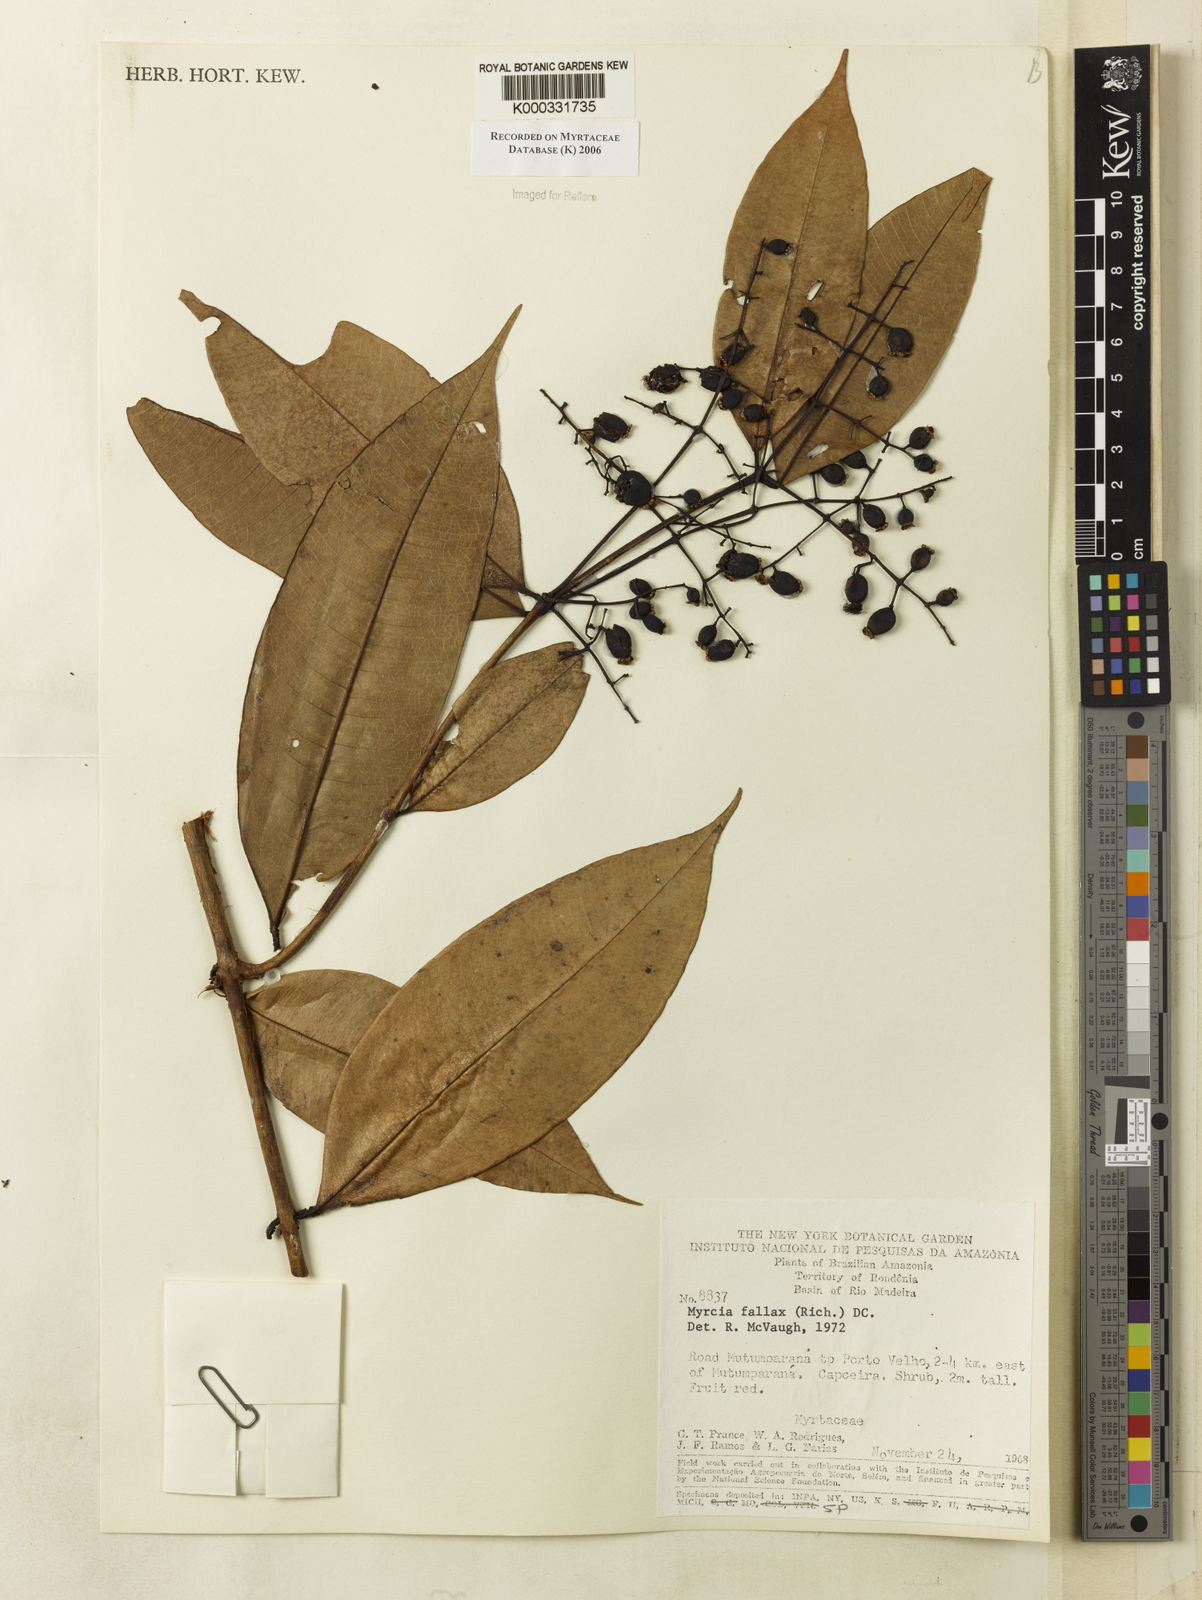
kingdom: Plantae
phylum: Tracheophyta
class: Magnoliopsida
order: Myrtales
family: Myrtaceae
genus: Myrcia
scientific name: Myrcia splendens
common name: Surinam cherry
